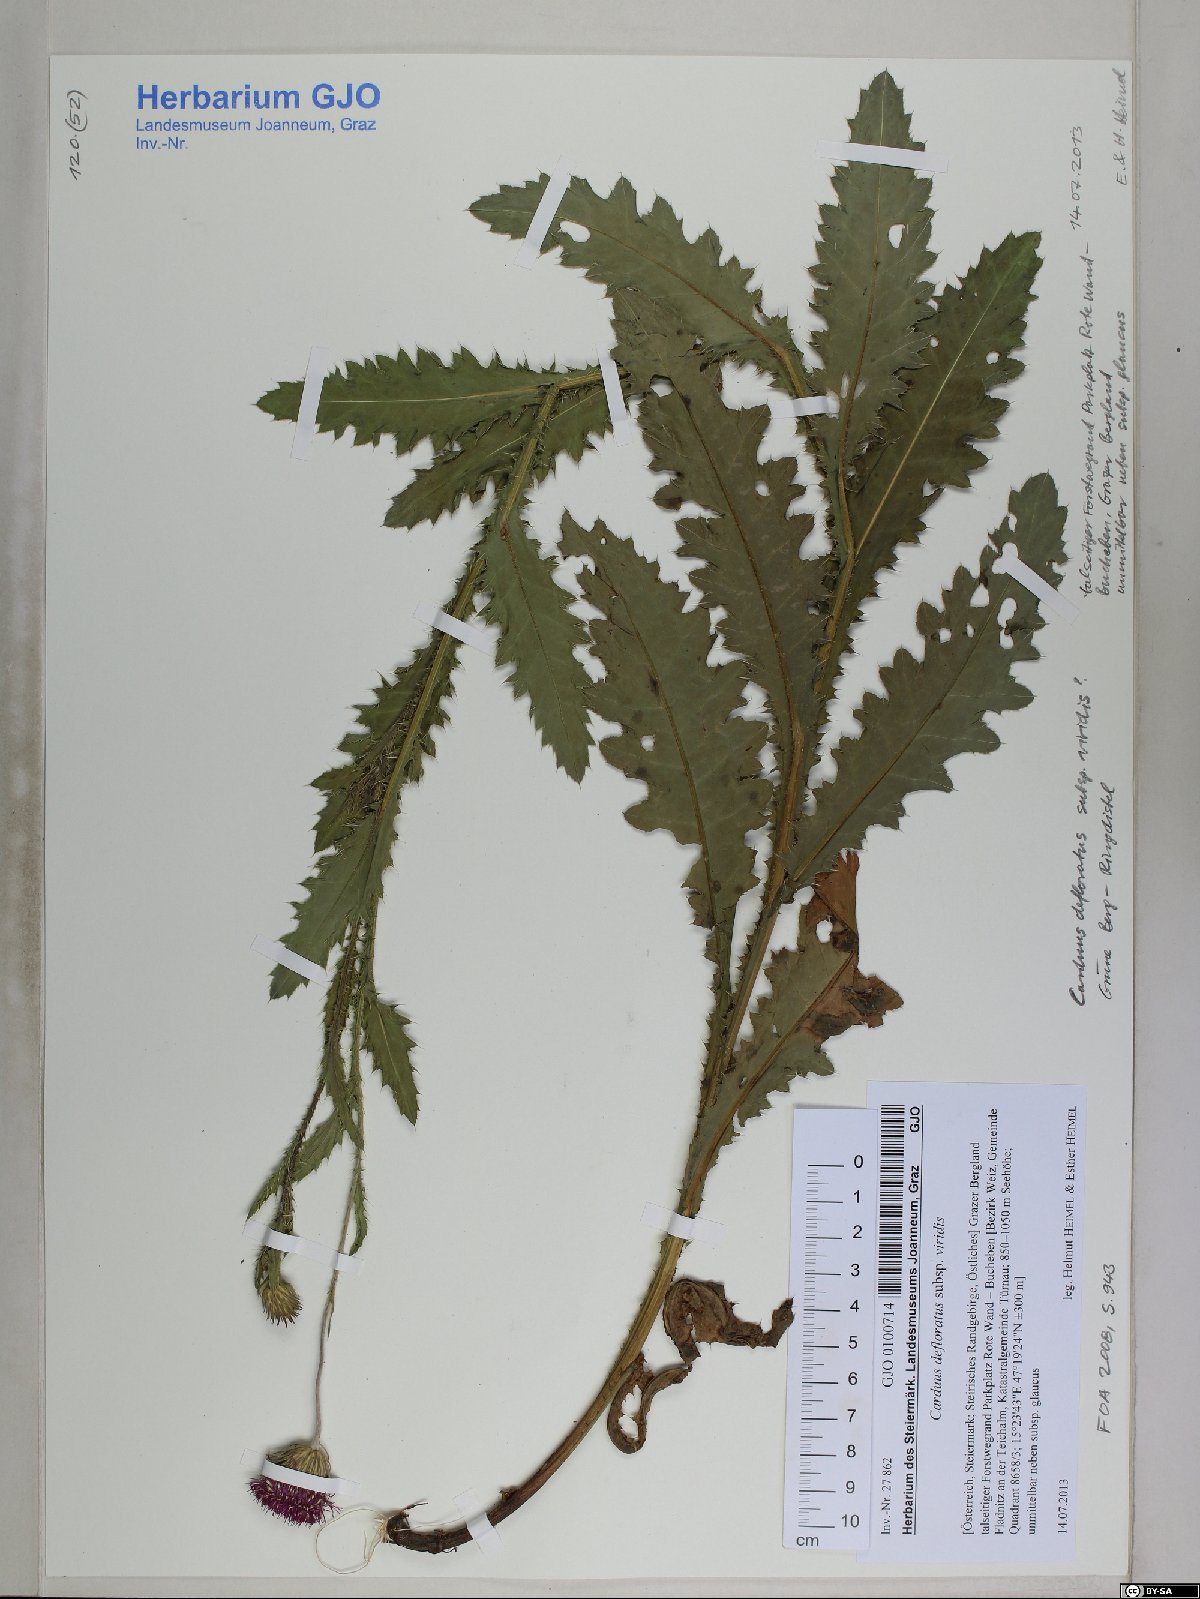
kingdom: Plantae
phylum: Tracheophyta
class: Magnoliopsida
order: Asterales
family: Asteraceae
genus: Carduus
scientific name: Carduus defloratus
